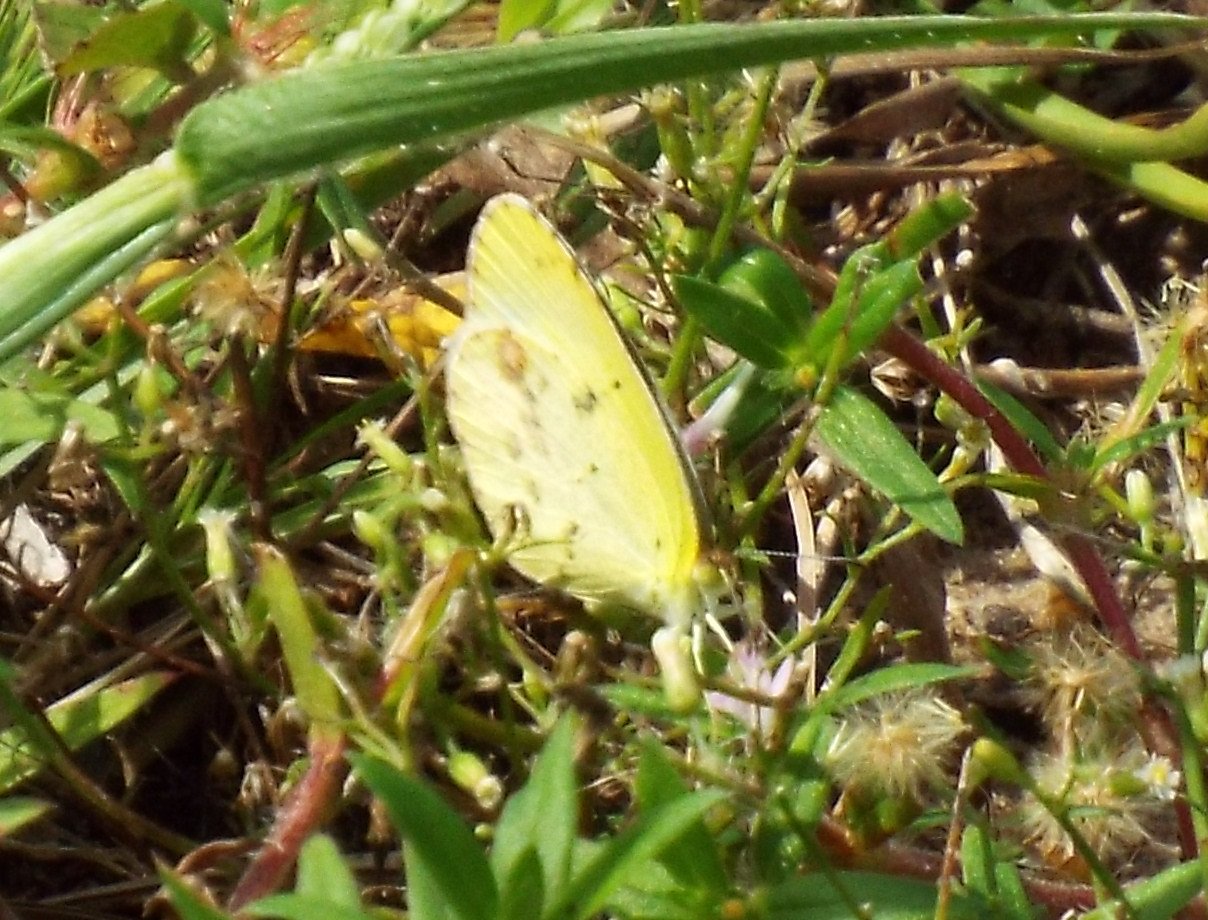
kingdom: Animalia
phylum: Arthropoda
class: Insecta
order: Lepidoptera
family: Pieridae
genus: Pyrisitia
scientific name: Pyrisitia lisa
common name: Little Yellow
